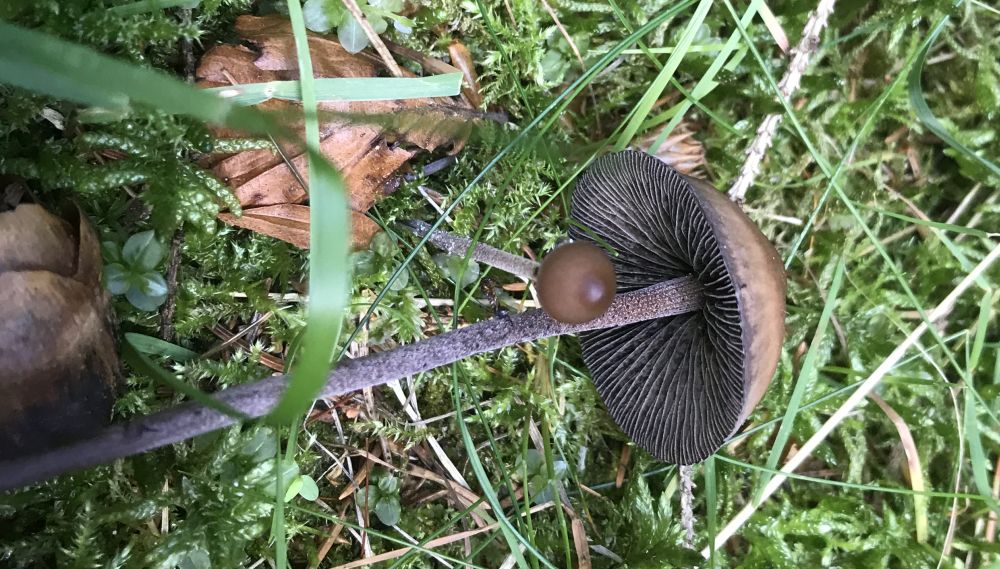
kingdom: Fungi
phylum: Basidiomycota
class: Agaricomycetes
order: Agaricales
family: Bolbitiaceae
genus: Panaeolus
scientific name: Panaeolus acuminatus
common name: høj glanshat
